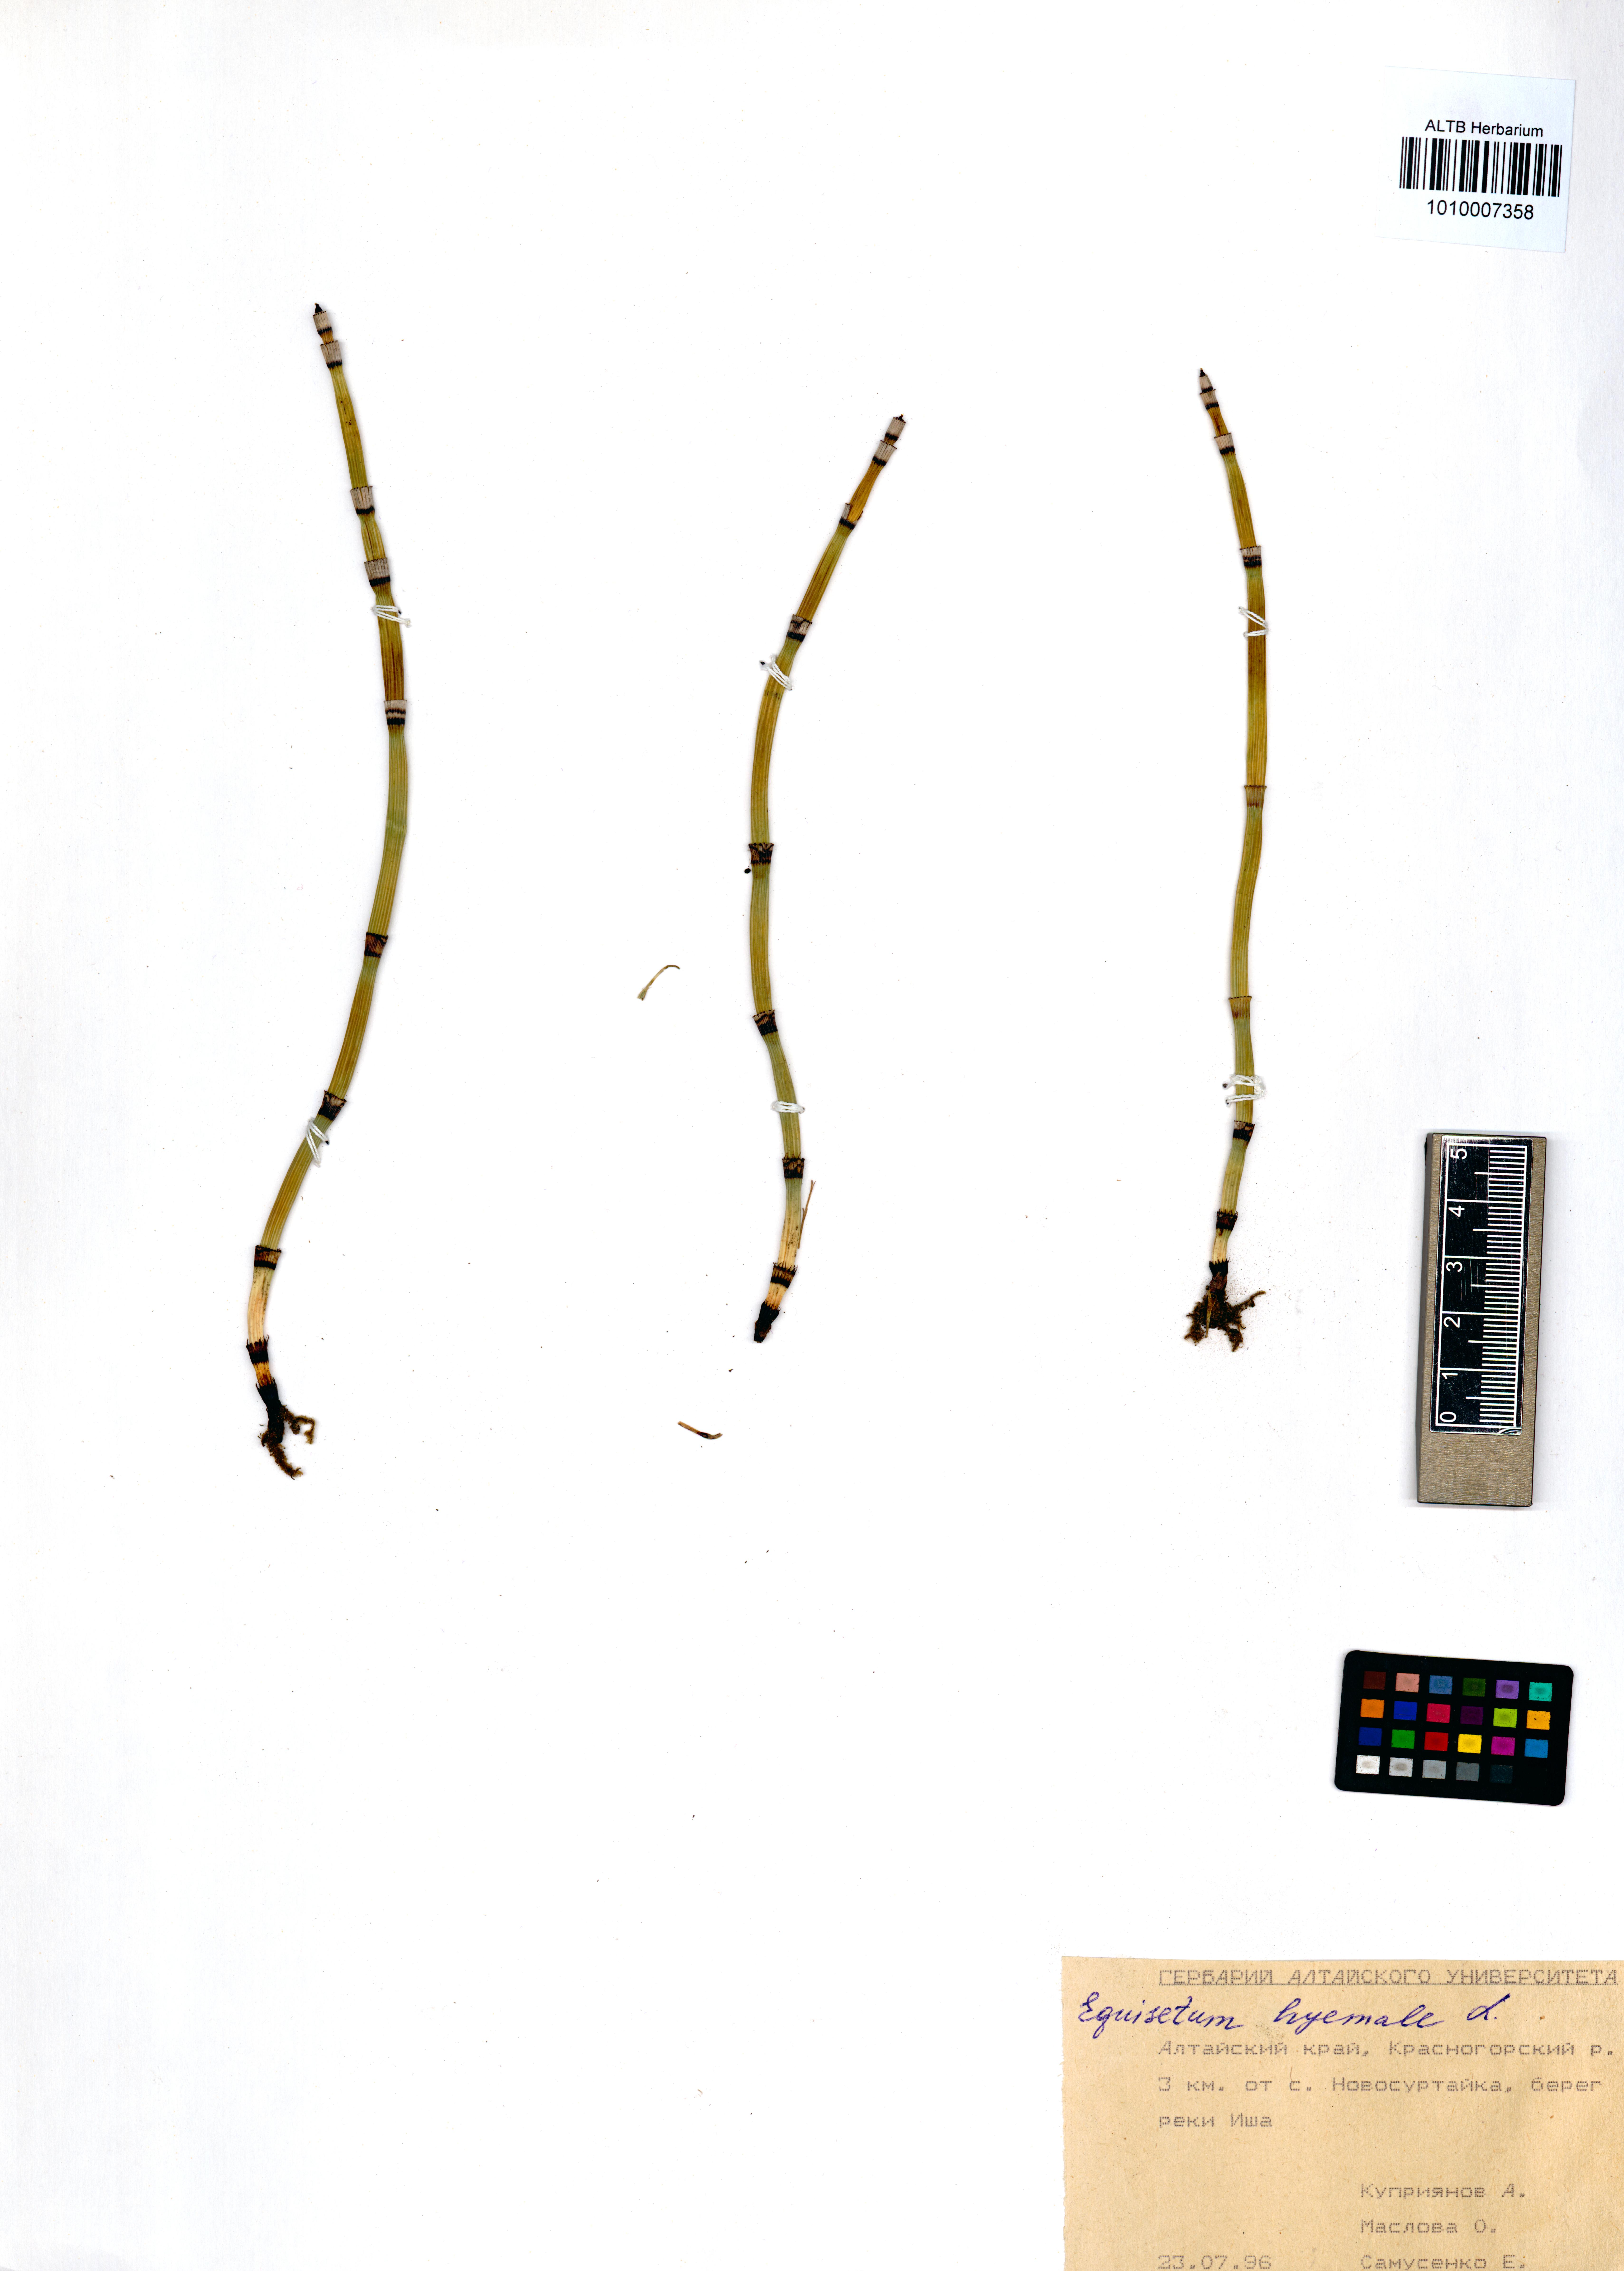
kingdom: Plantae
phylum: Tracheophyta
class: Polypodiopsida
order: Equisetales
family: Equisetaceae
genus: Equisetum
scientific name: Equisetum hyemale
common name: Rough horsetail
